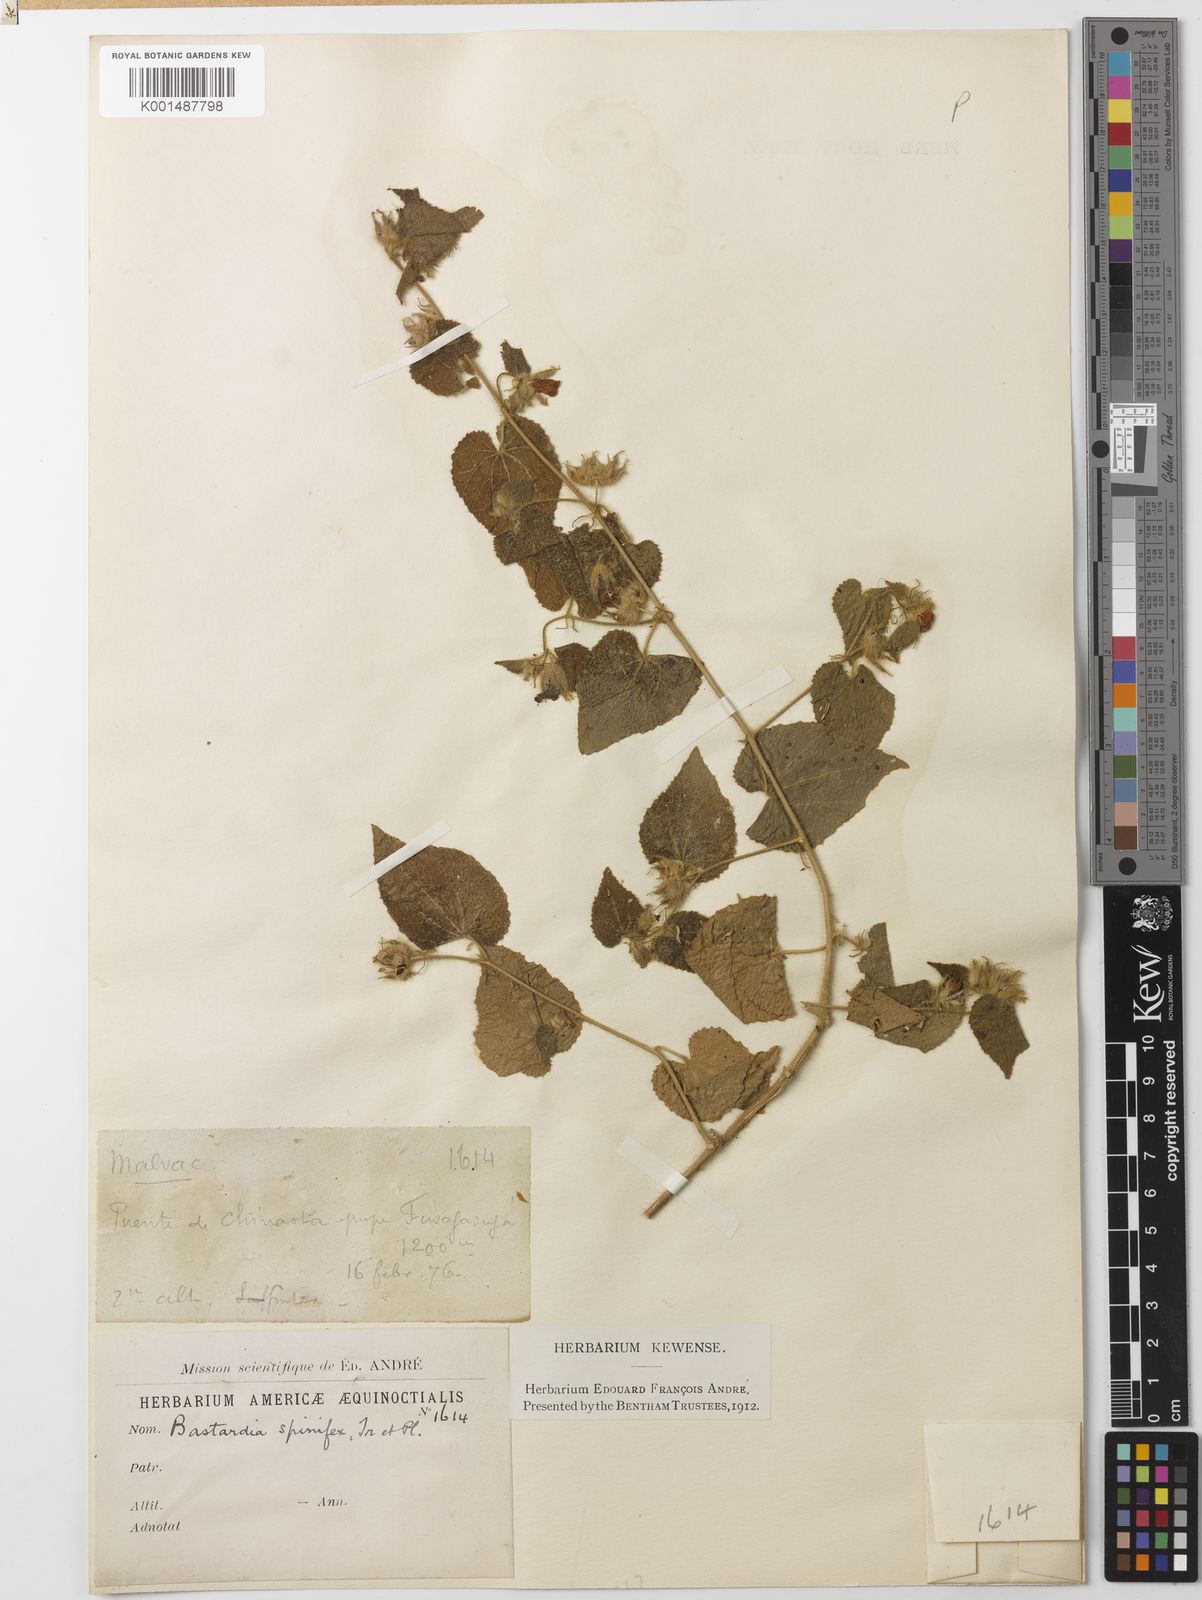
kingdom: Plantae
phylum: Tracheophyta
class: Magnoliopsida
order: Malvales
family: Malvaceae
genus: Abutilon
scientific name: Abutilon bivalve
